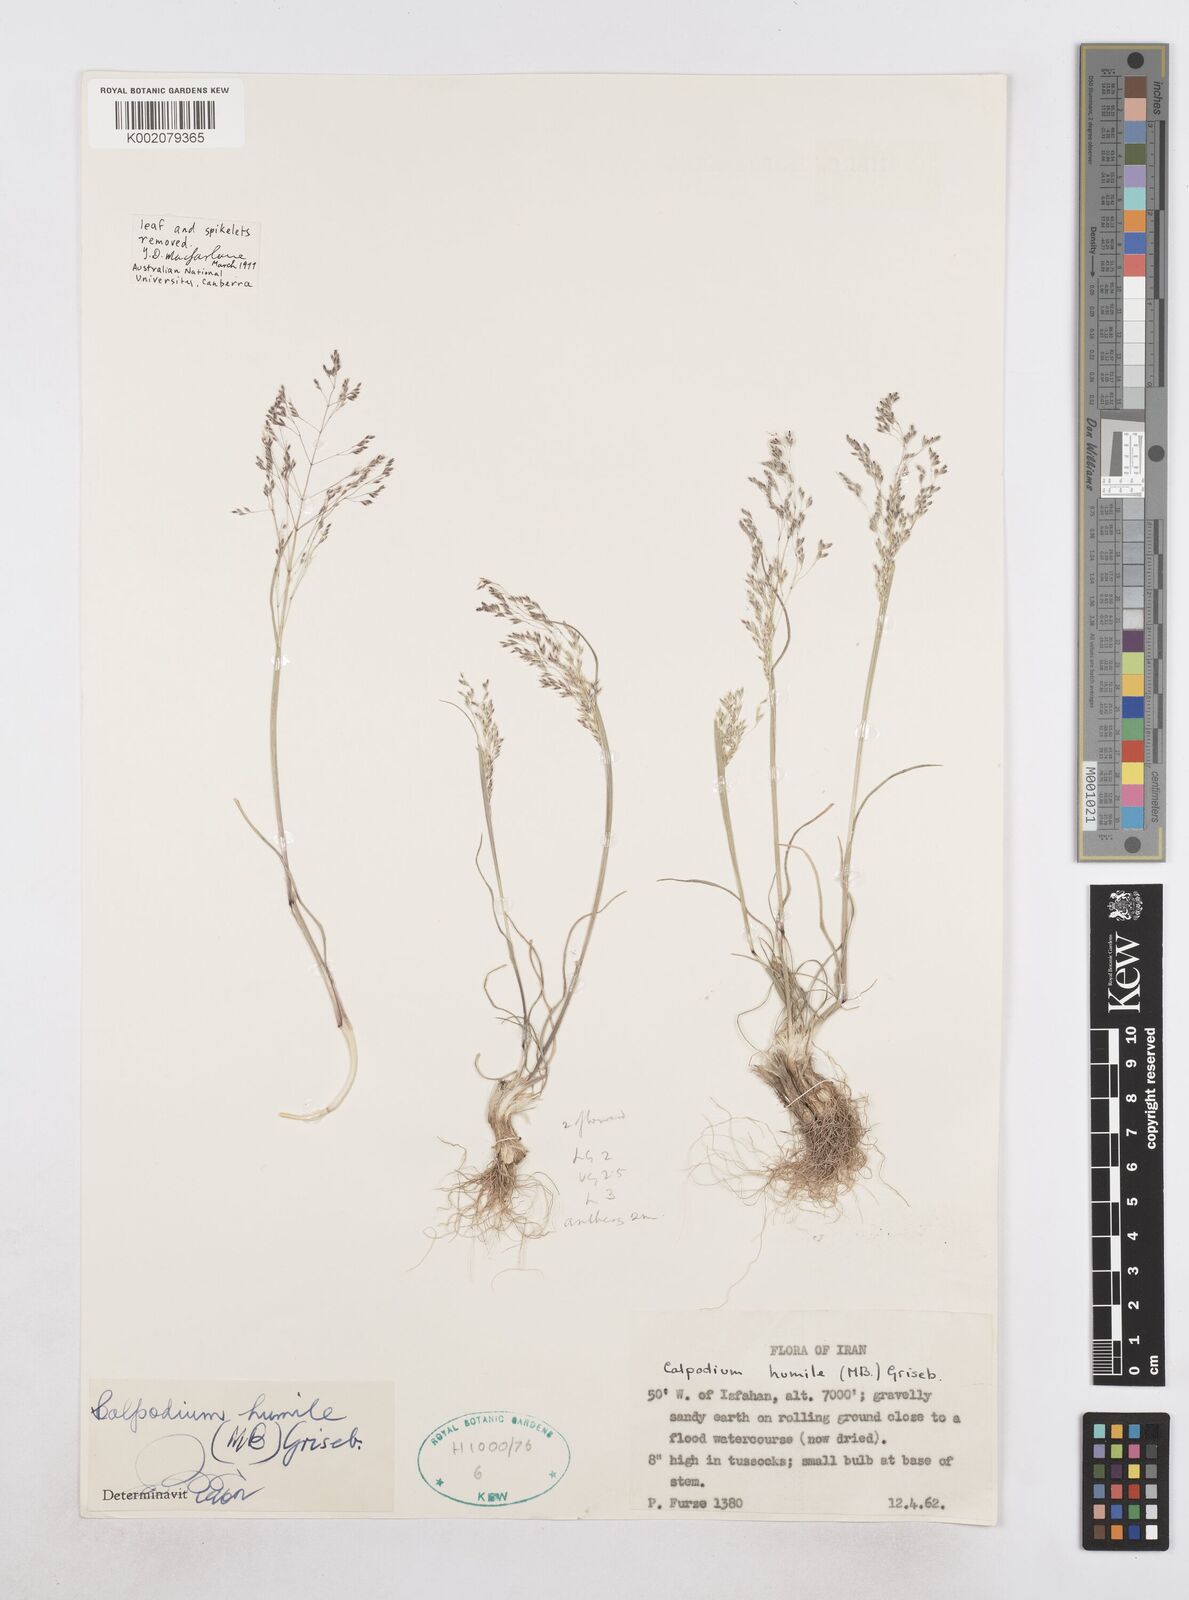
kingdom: Plantae
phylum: Tracheophyta
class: Liliopsida
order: Poales
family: Poaceae
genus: Catabrosella
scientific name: Catabrosella humilis
